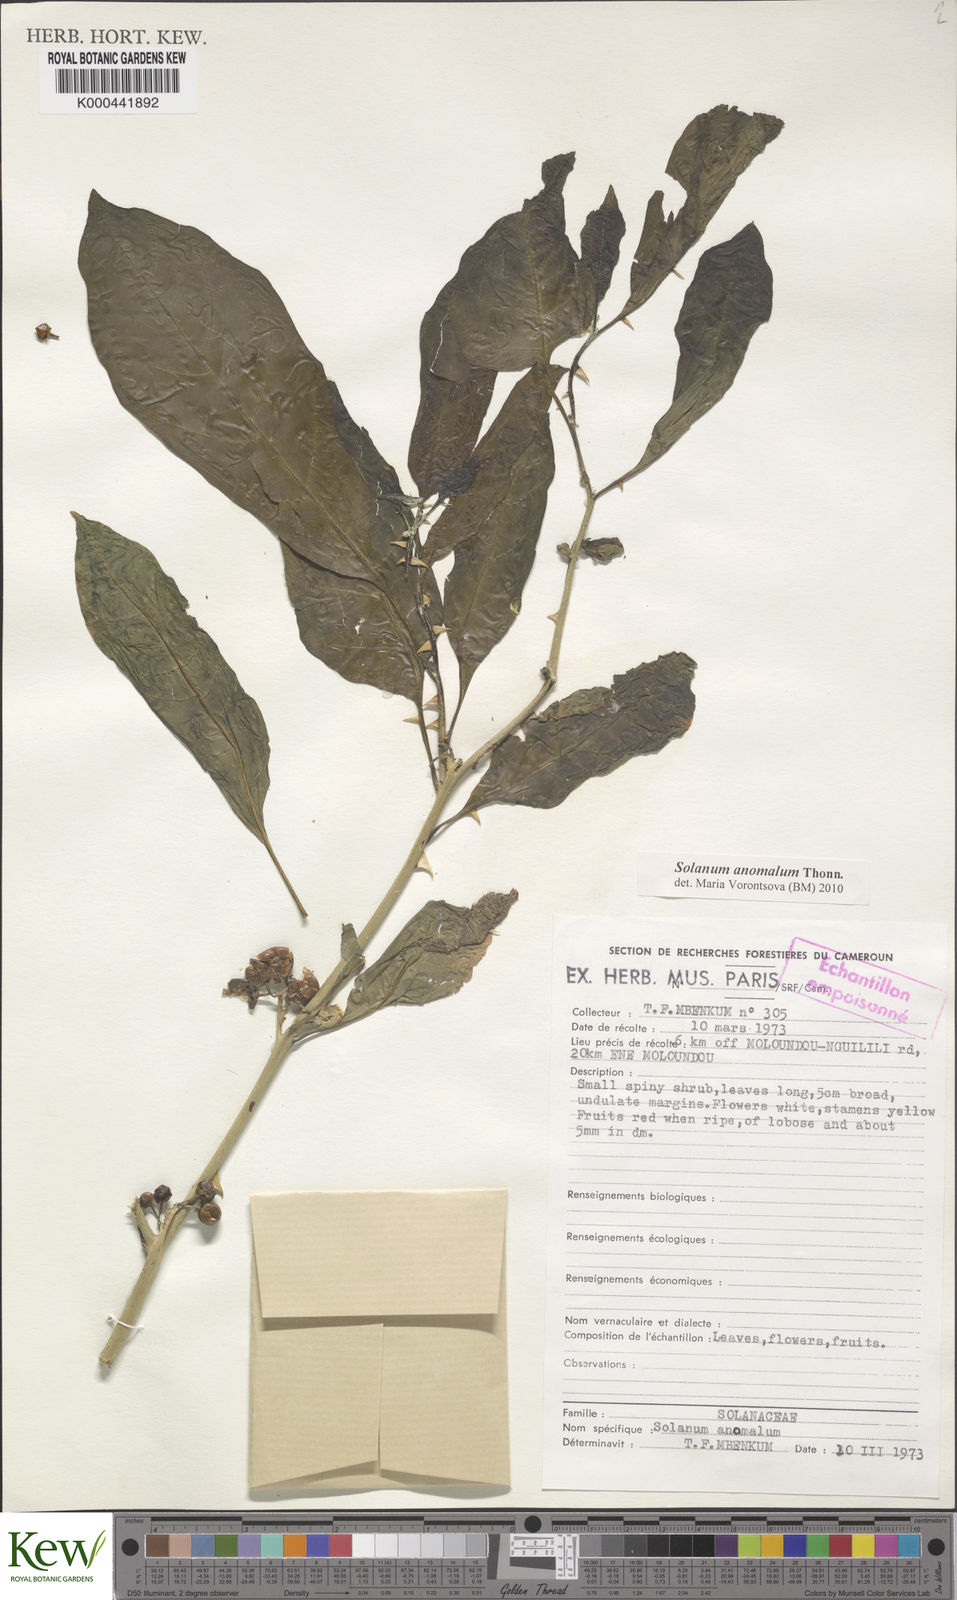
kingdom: Plantae
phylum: Tracheophyta
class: Magnoliopsida
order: Solanales
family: Solanaceae
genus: Solanum
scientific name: Solanum anomalum
